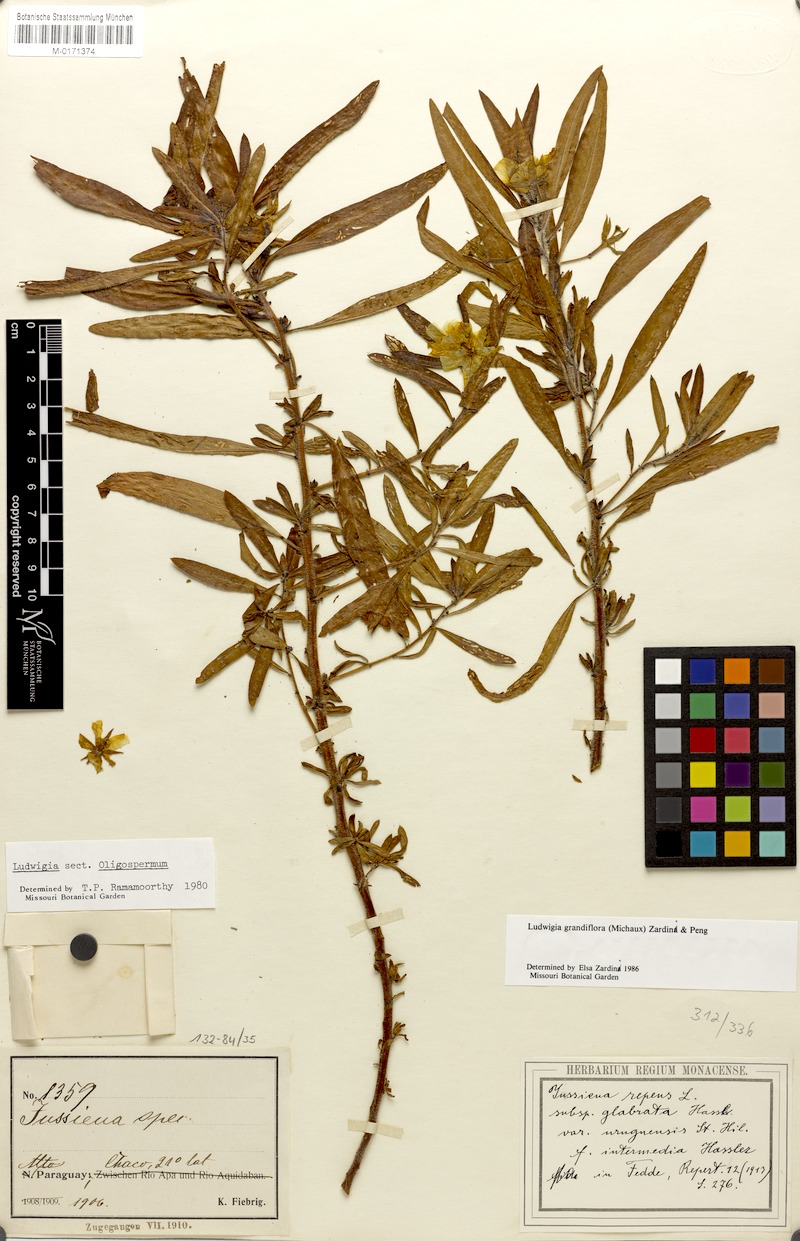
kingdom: Plantae
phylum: Tracheophyta
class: Magnoliopsida
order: Myrtales
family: Onagraceae
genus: Ludwigia
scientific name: Ludwigia grandiflora
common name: Water primrose
